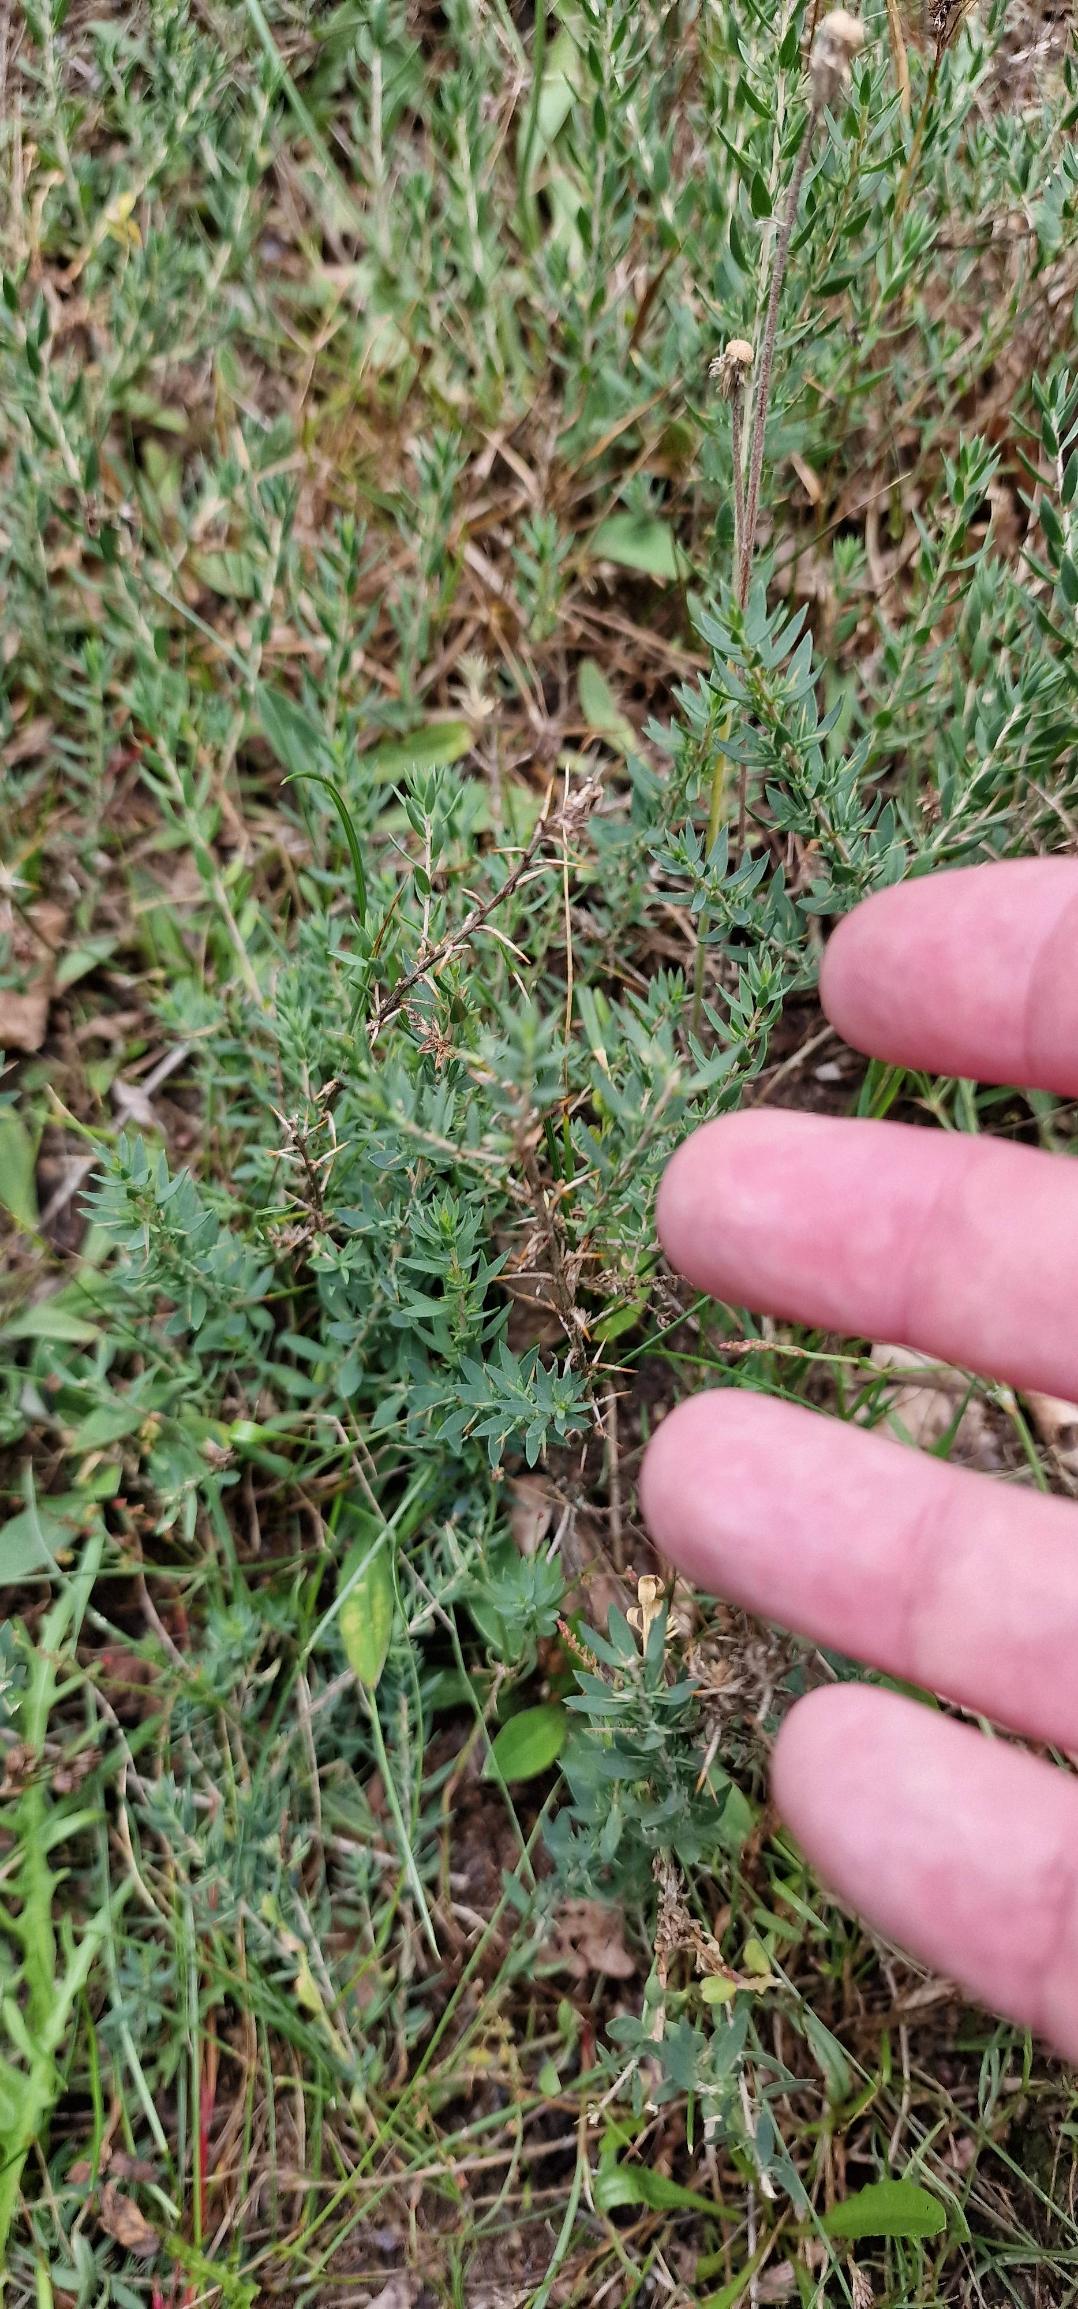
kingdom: Plantae
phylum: Tracheophyta
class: Magnoliopsida
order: Fabales
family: Fabaceae
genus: Genista
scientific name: Genista anglica
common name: Engelsk visse
